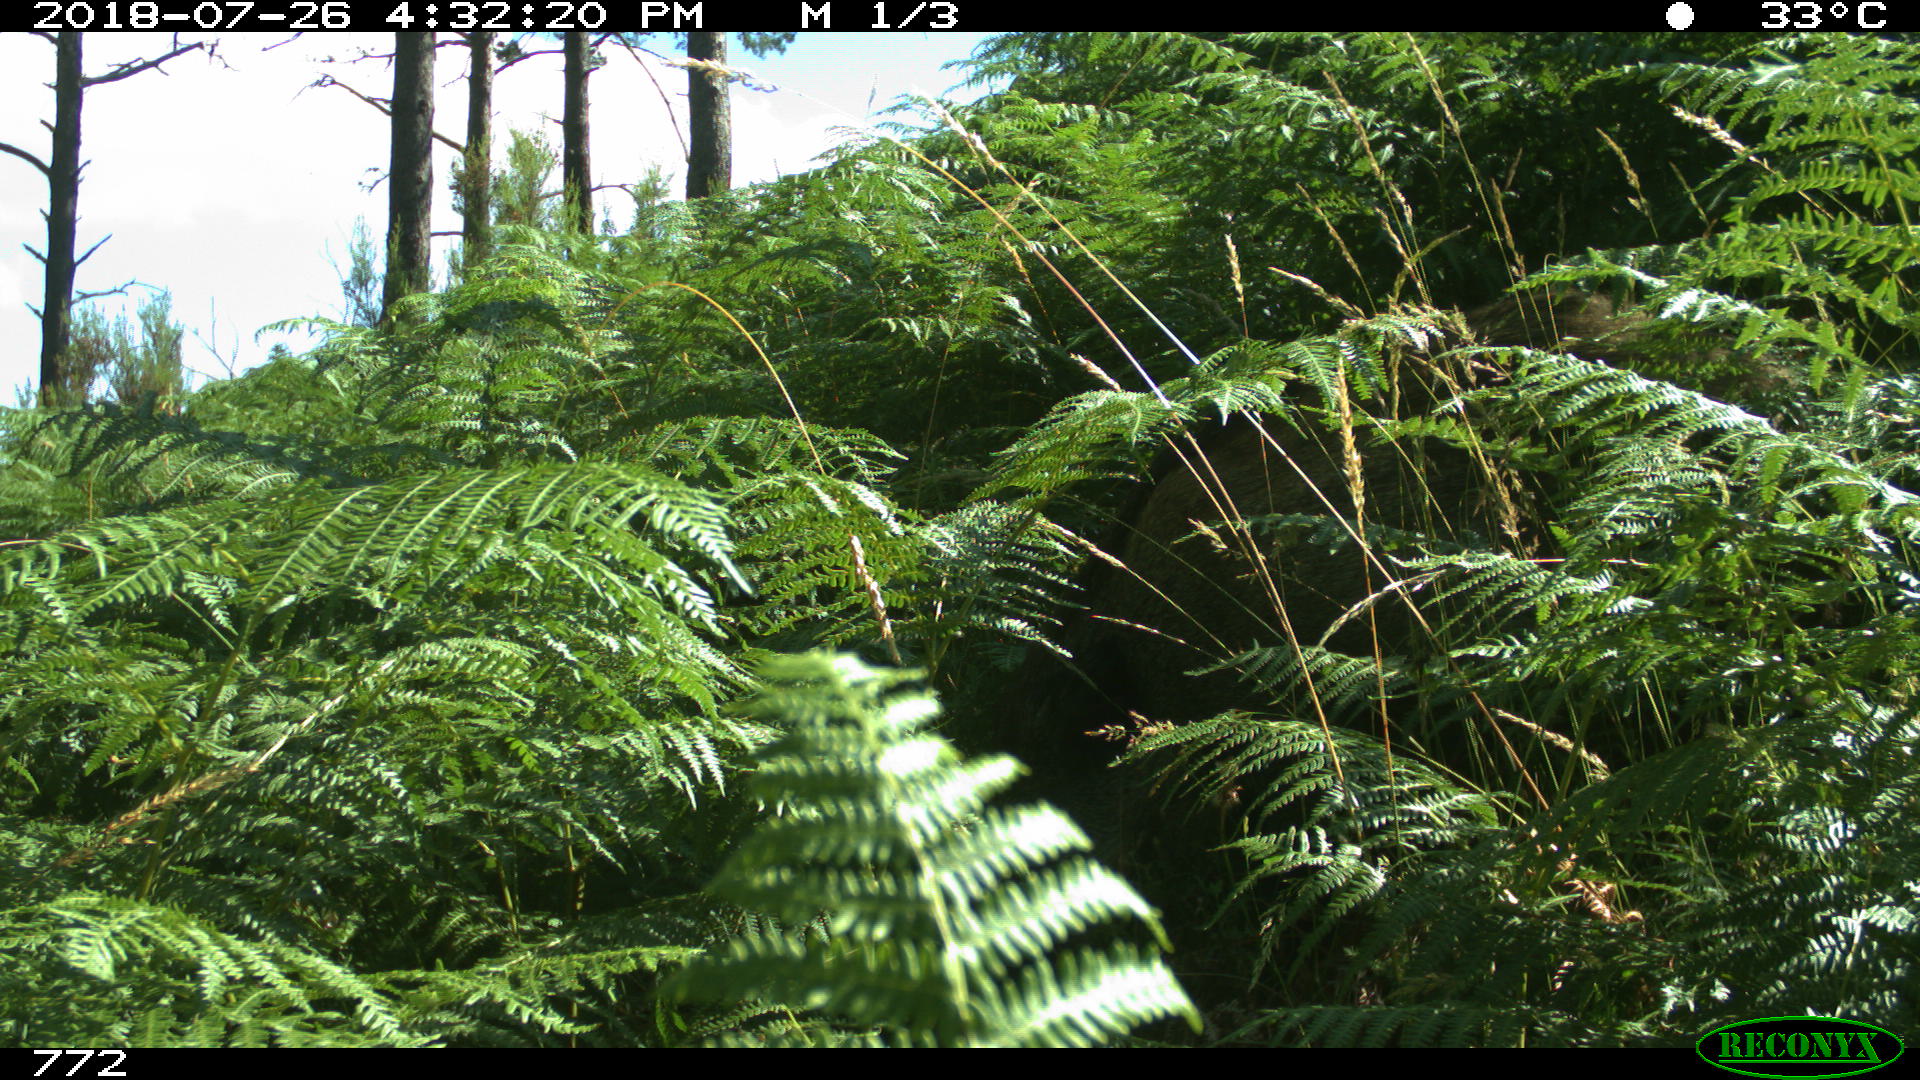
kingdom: Animalia
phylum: Chordata
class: Mammalia
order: Artiodactyla
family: Suidae
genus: Sus
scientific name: Sus scrofa
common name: Wild boar
